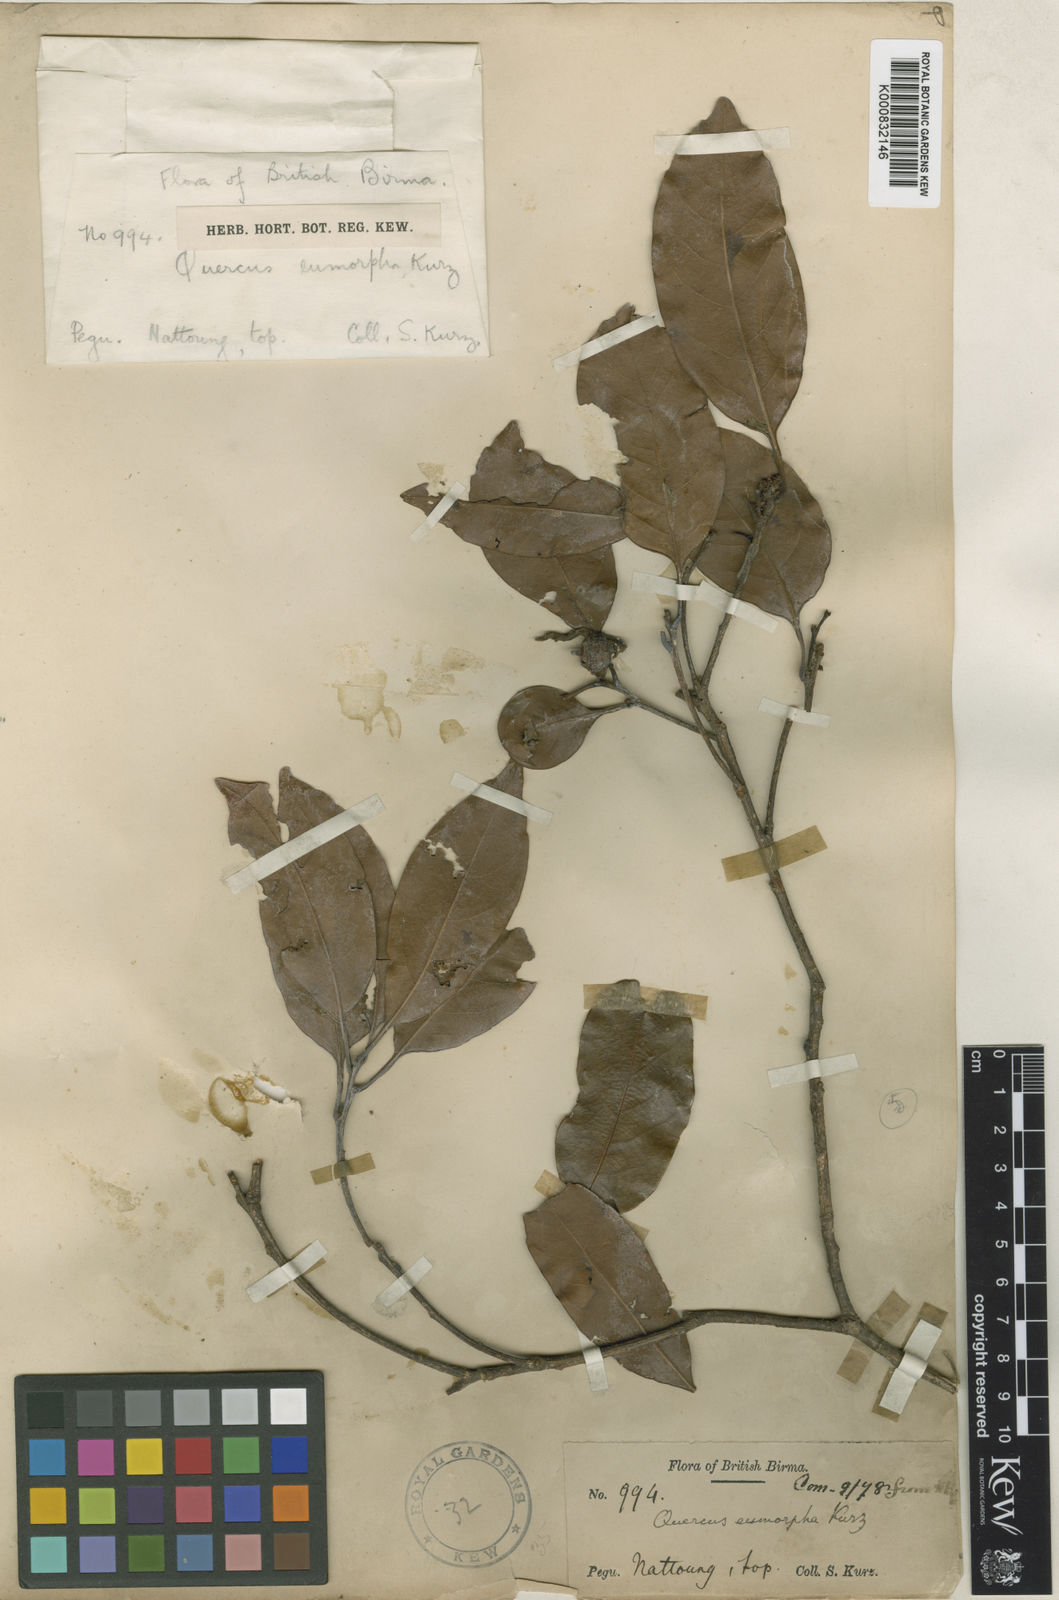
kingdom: Plantae
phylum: Tracheophyta
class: Magnoliopsida
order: Fagales
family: Fagaceae
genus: Quercus
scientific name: Quercus eumorpha
